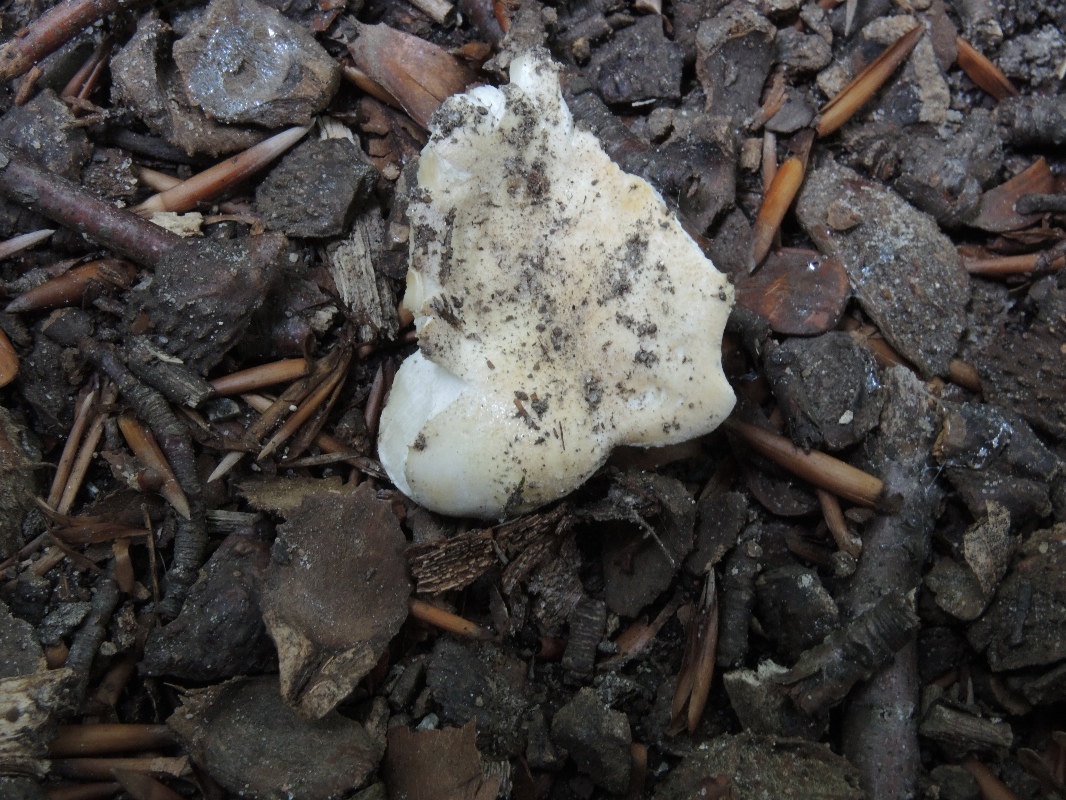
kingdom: Fungi
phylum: Basidiomycota
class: Agaricomycetes
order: Russulales
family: Russulaceae
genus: Russula
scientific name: Russula roseoaurantia
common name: kornet skørhat
